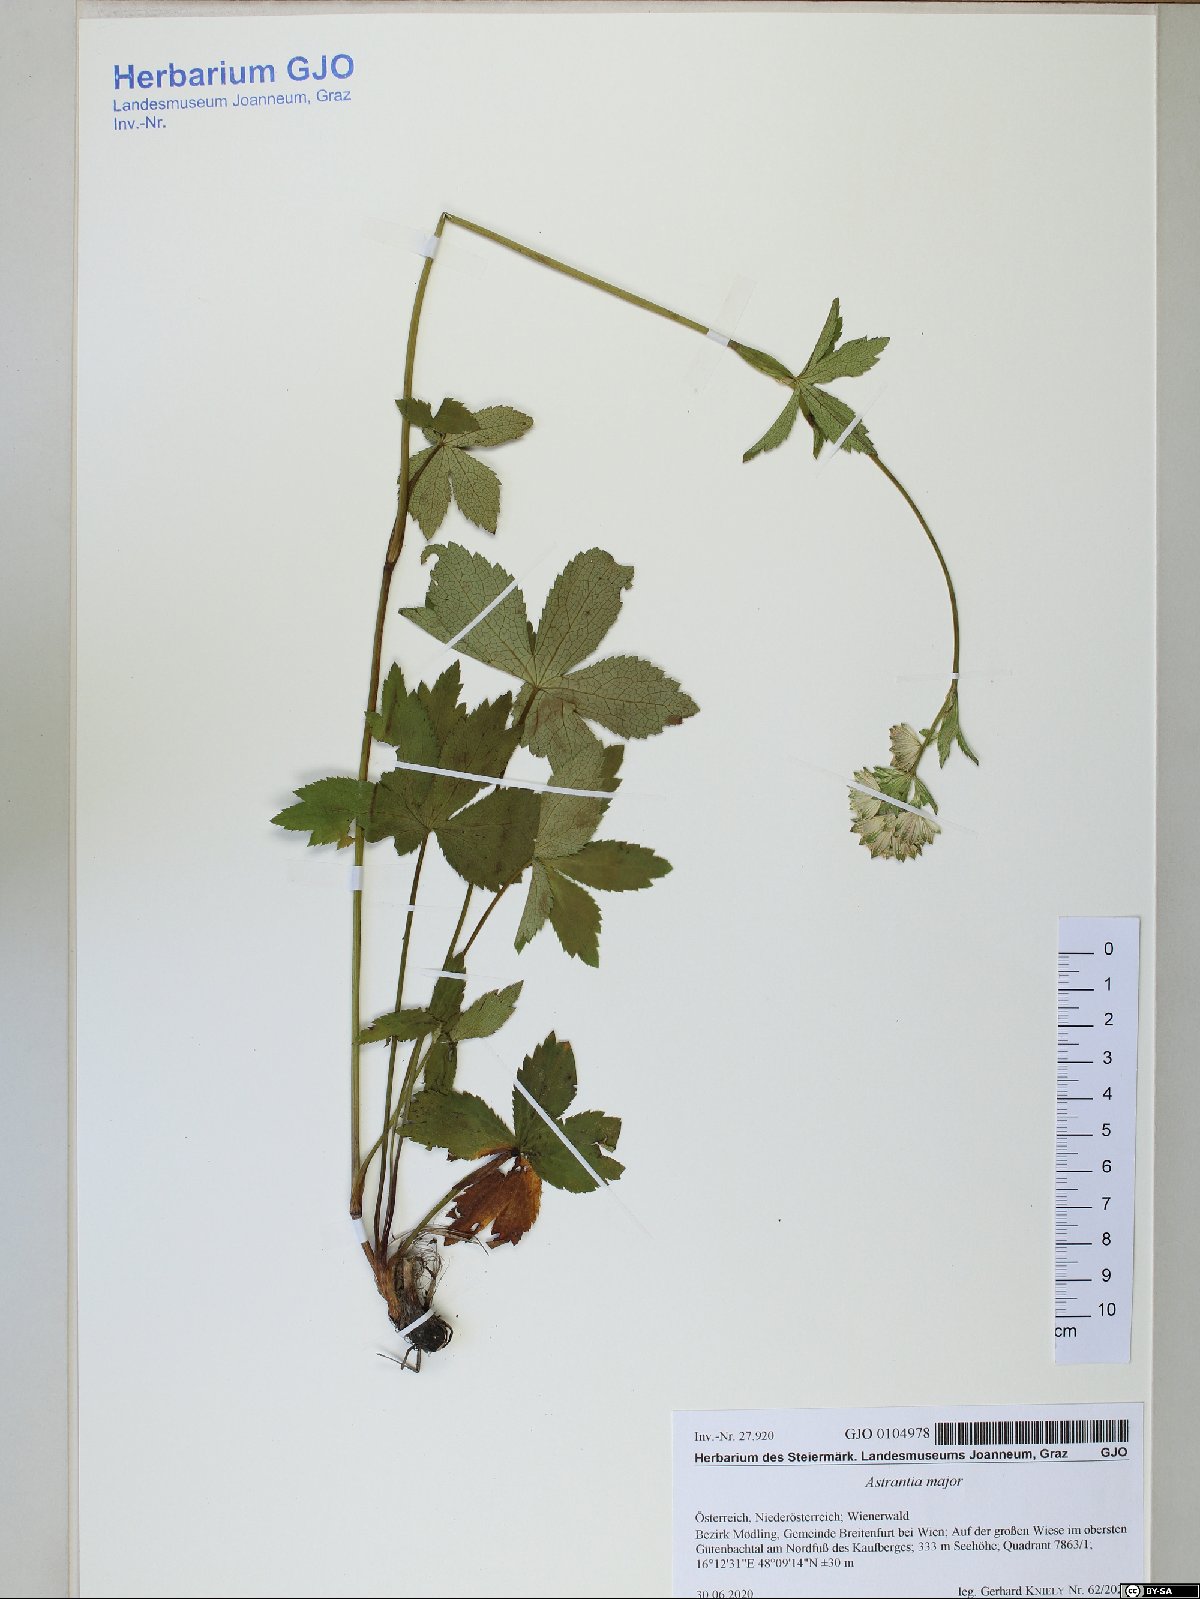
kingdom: Plantae
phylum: Tracheophyta
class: Magnoliopsida
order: Apiales
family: Apiaceae
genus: Astrantia
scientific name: Astrantia major
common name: Greater masterwort
